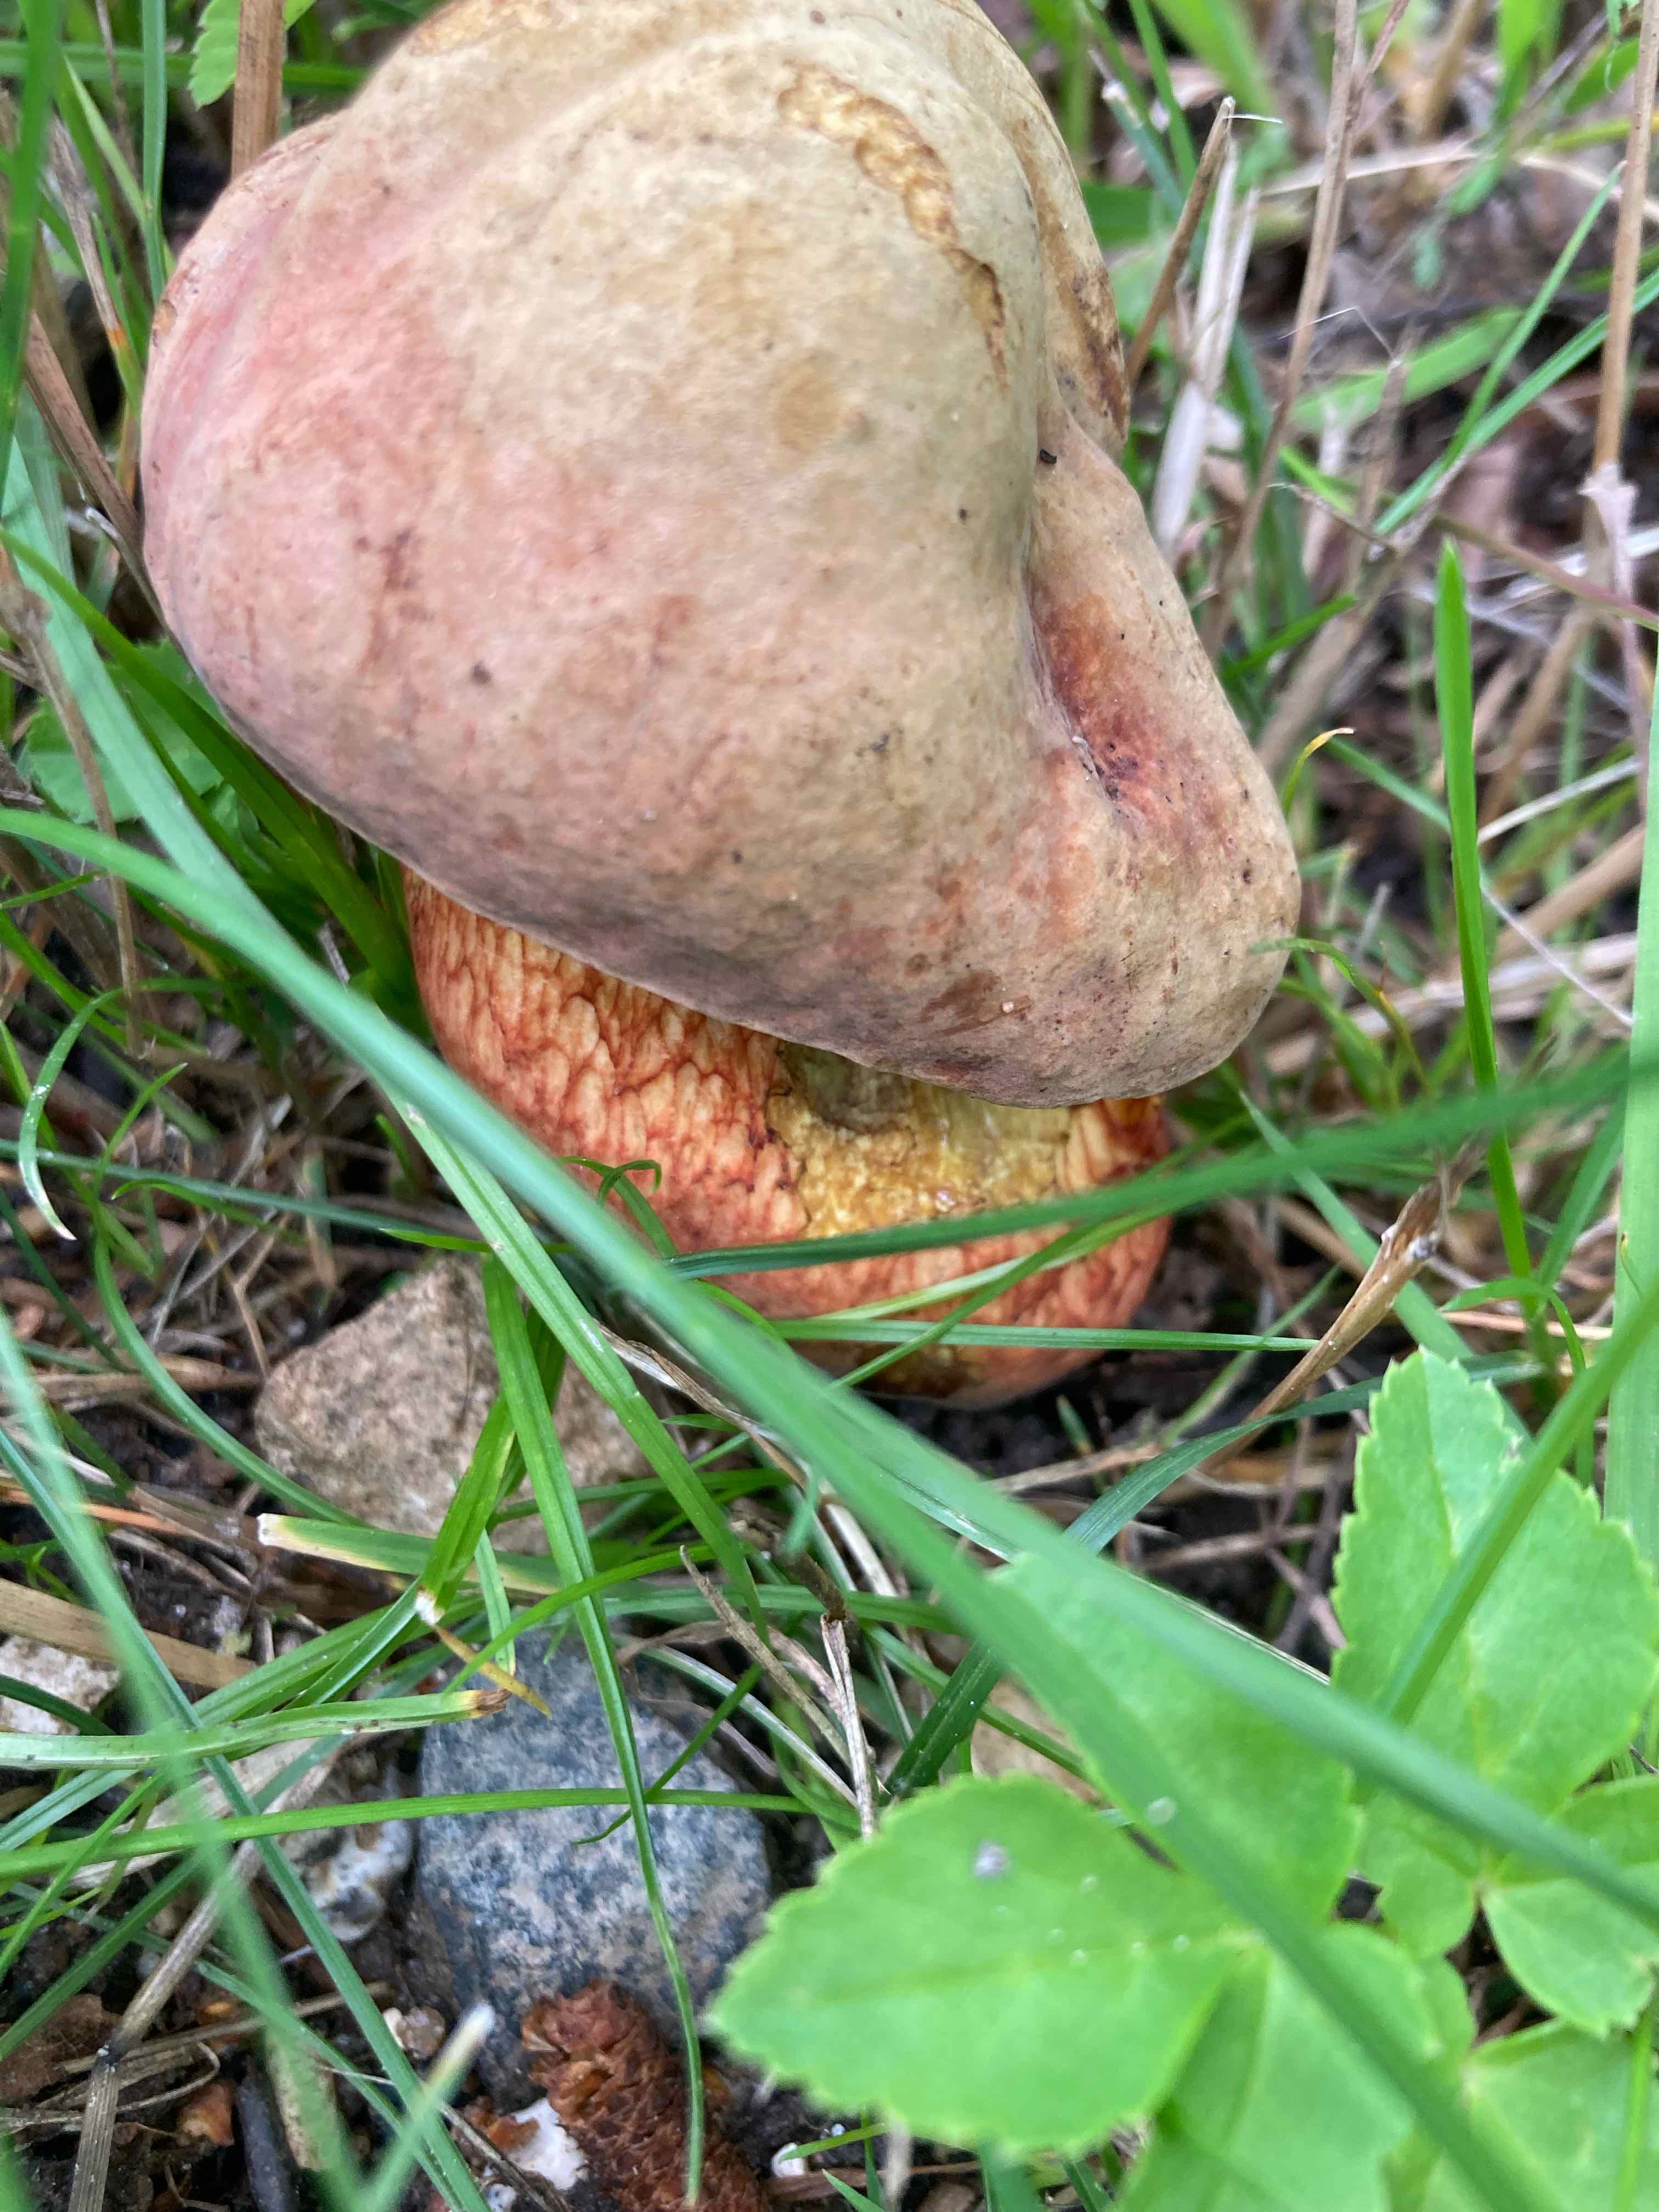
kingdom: Fungi
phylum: Basidiomycota
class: Agaricomycetes
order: Boletales
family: Boletaceae
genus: Suillellus
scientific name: Suillellus luridus
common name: netstokket indigorørhat
